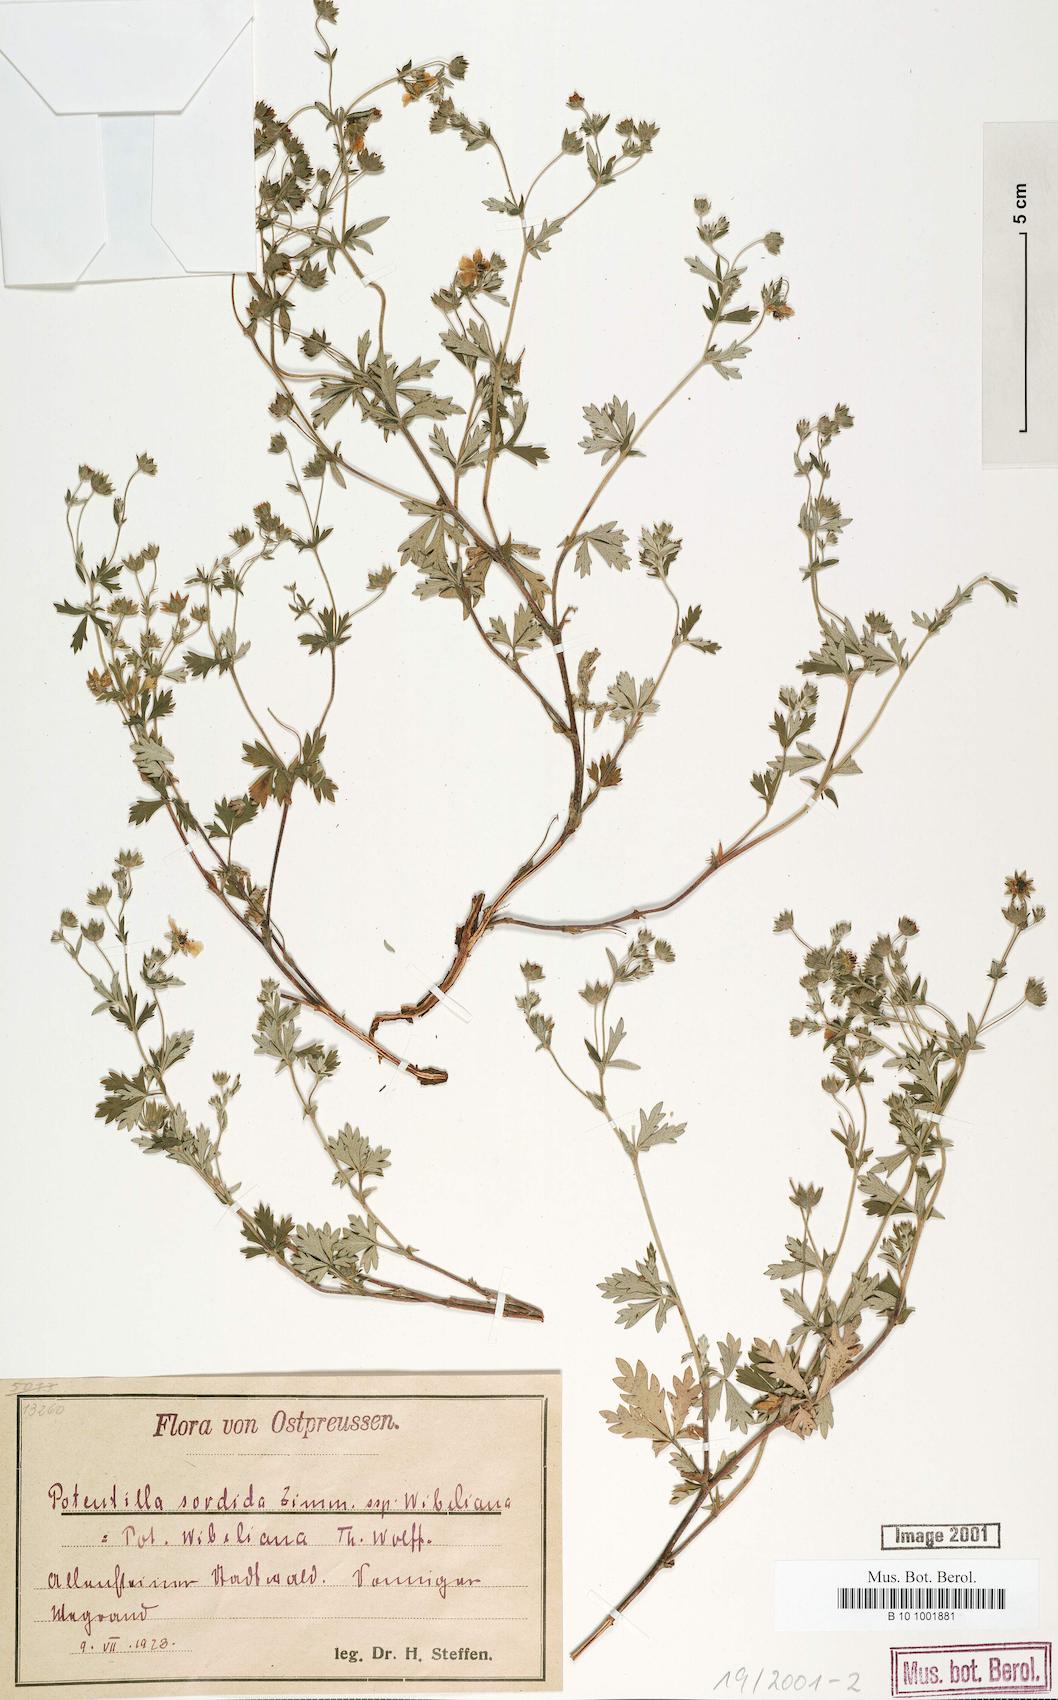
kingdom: Plantae
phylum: Tracheophyta
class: Magnoliopsida
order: Rosales
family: Rosaceae
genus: Potentilla
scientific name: Potentilla collina
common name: Palmleaf cinquefoil
